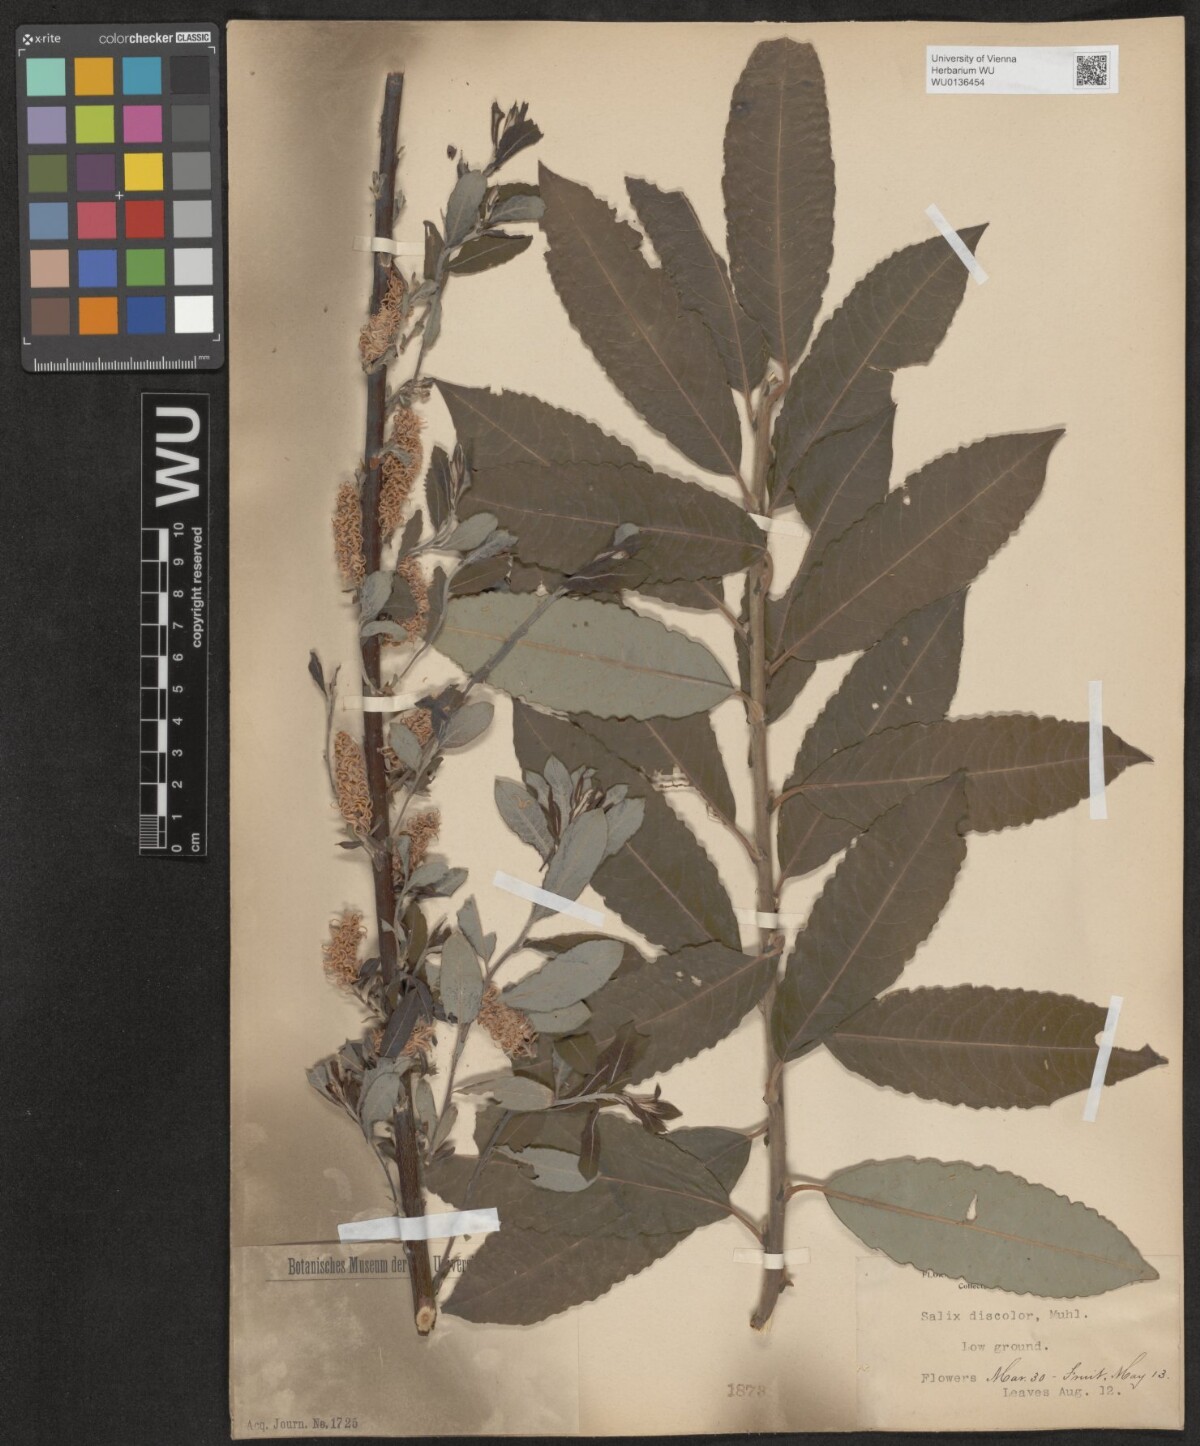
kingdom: Plantae
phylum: Tracheophyta
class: Magnoliopsida
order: Malpighiales
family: Salicaceae
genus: Salix
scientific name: Salix discolor
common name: Glaucous willow
